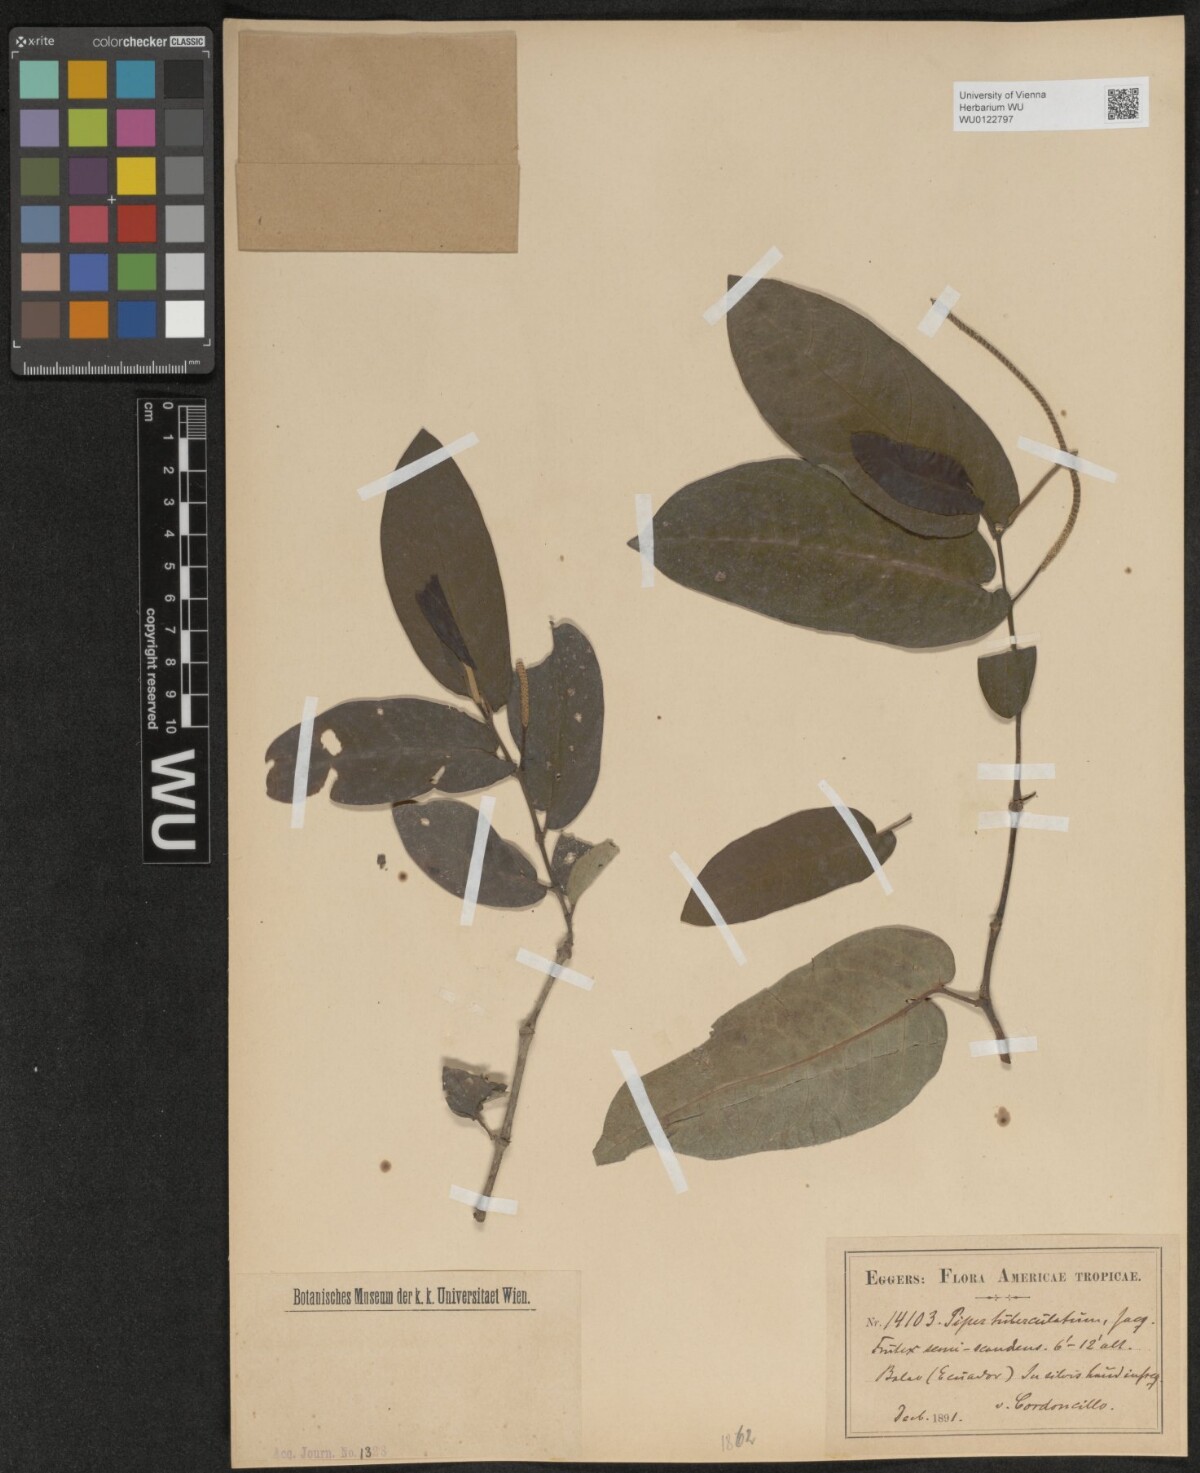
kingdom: Plantae
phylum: Tracheophyta
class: Magnoliopsida
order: Piperales
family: Piperaceae
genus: Piper
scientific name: Piper tuberculatum
